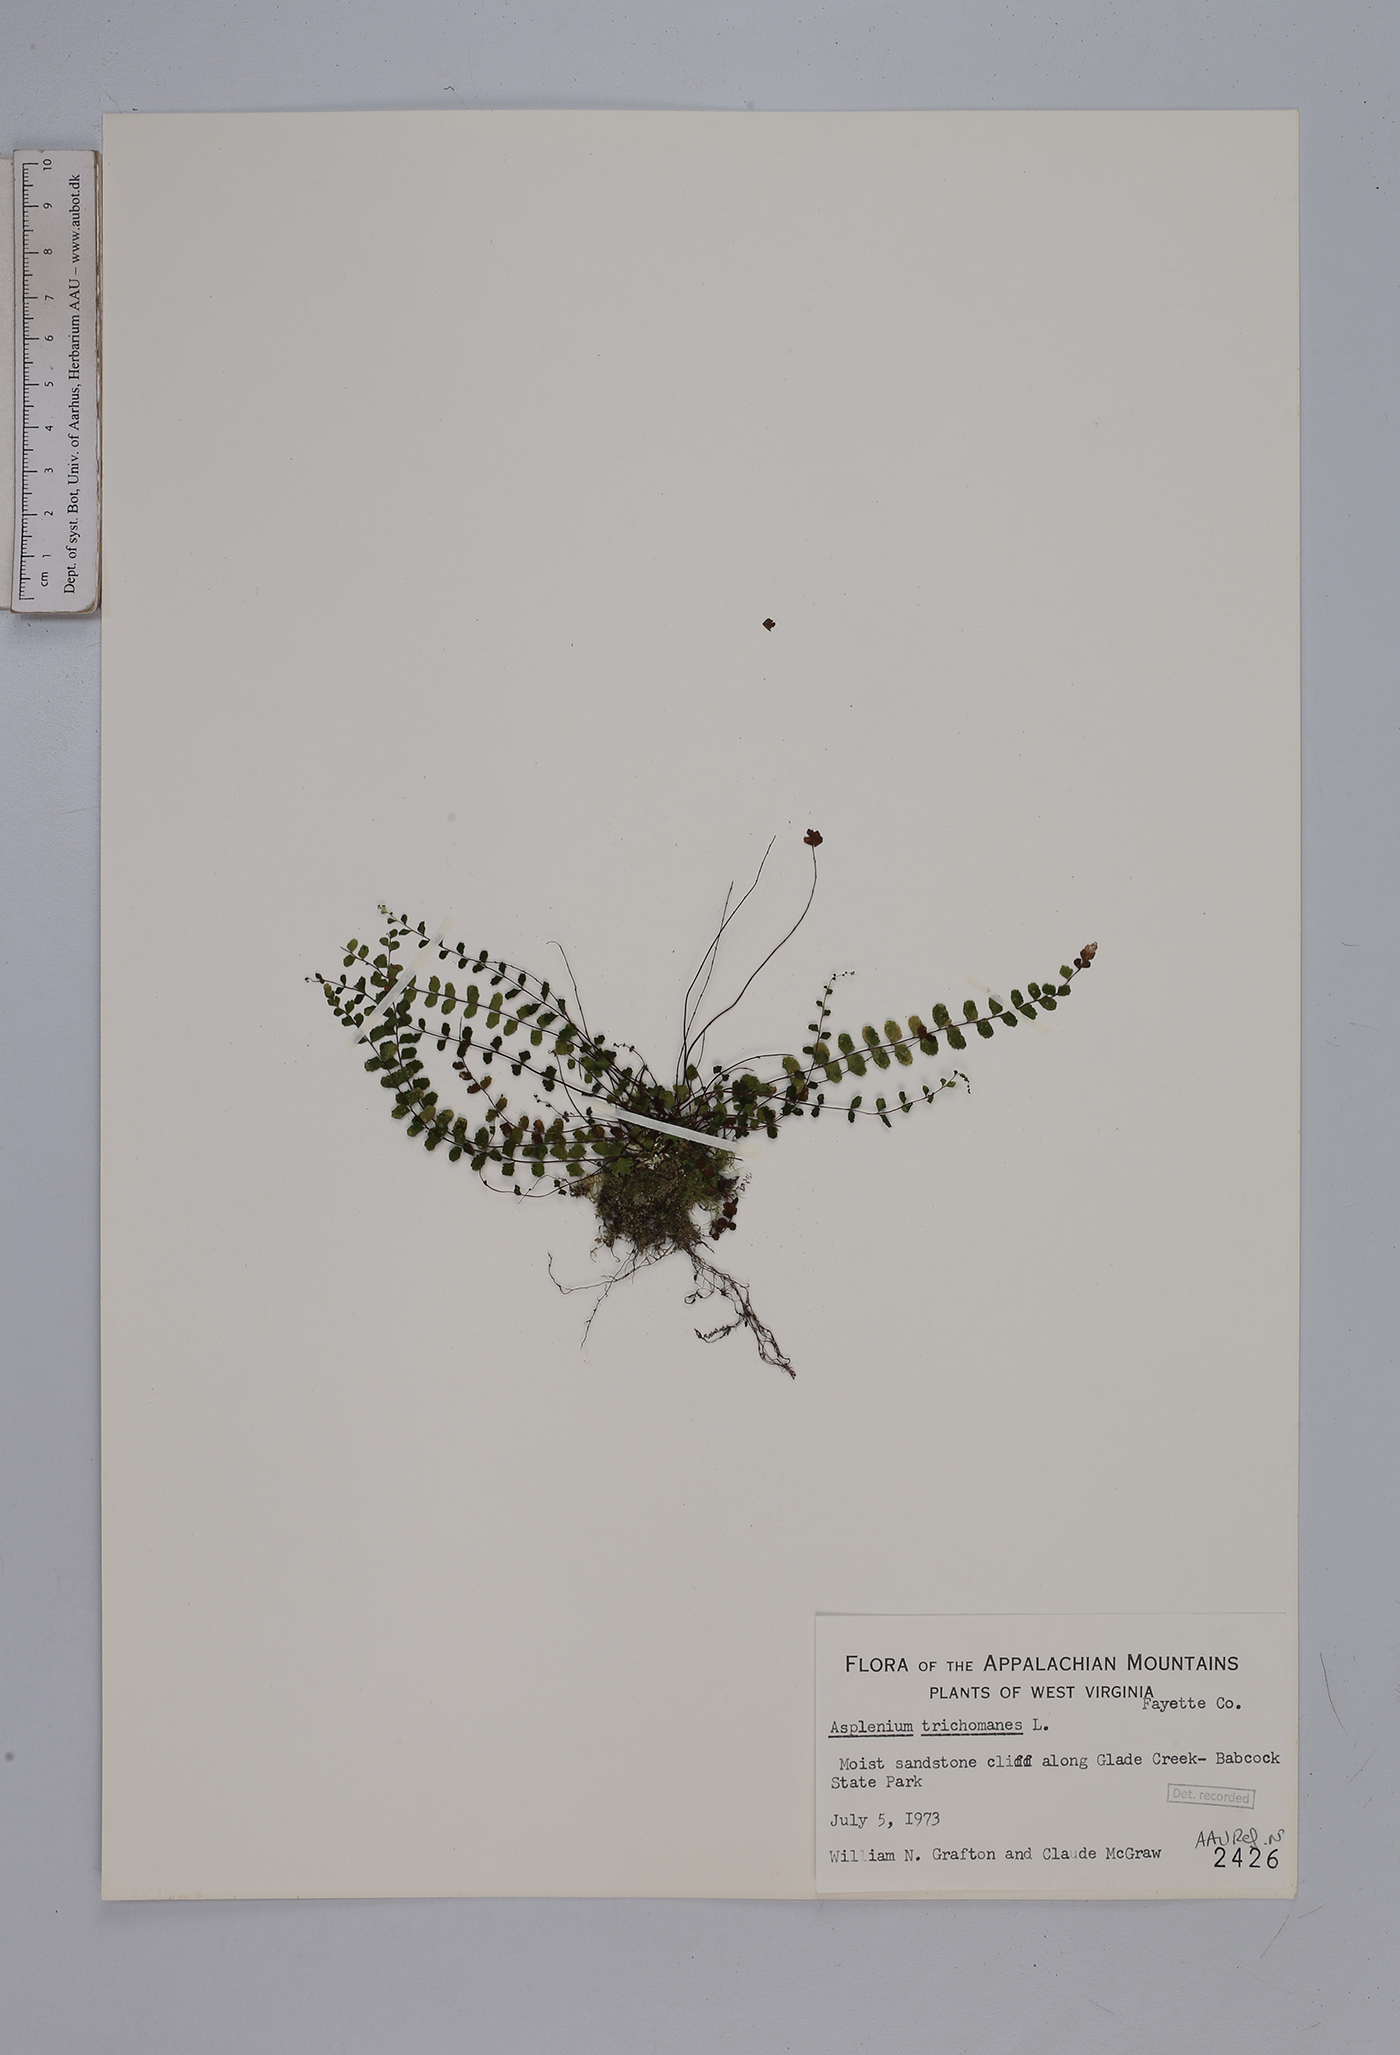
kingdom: Plantae
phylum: Tracheophyta
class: Polypodiopsida
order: Polypodiales
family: Aspleniaceae
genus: Asplenium
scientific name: Asplenium trichomanes
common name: Maidenhair spleenwort
